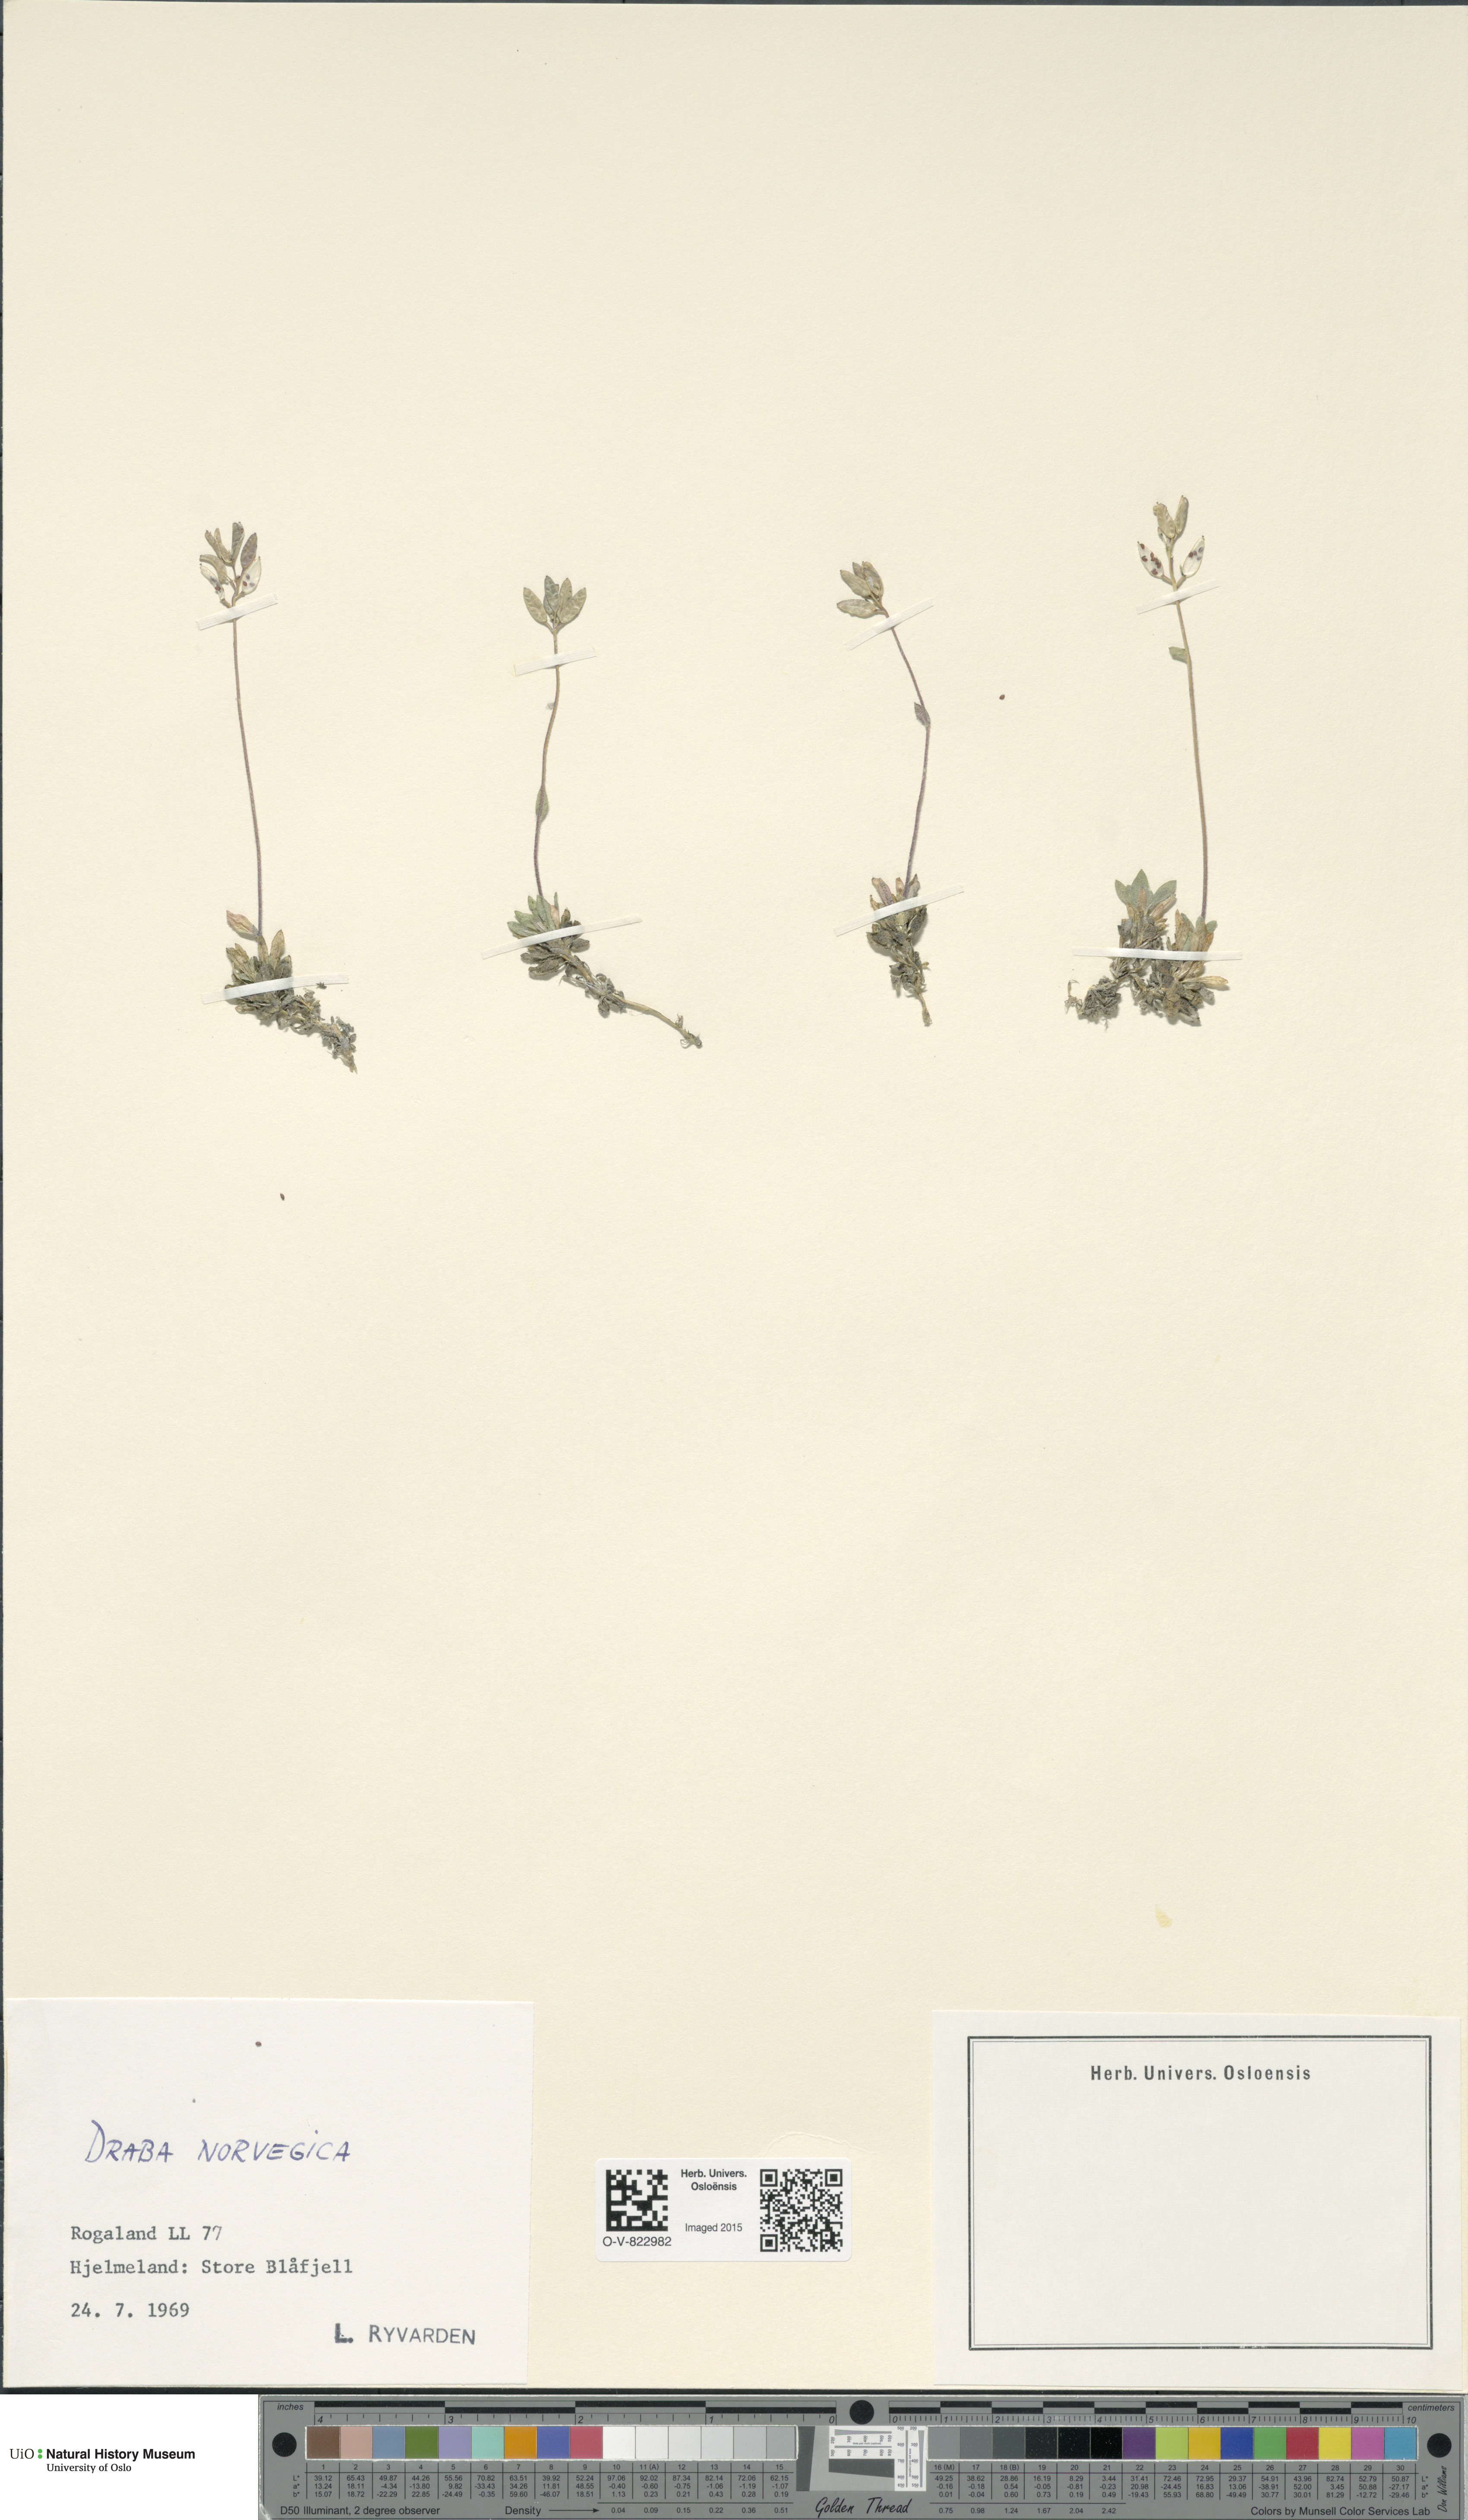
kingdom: Plantae
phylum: Tracheophyta
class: Magnoliopsida
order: Brassicales
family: Brassicaceae
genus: Draba
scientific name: Draba norvegica
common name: Rock whitlowgrass
